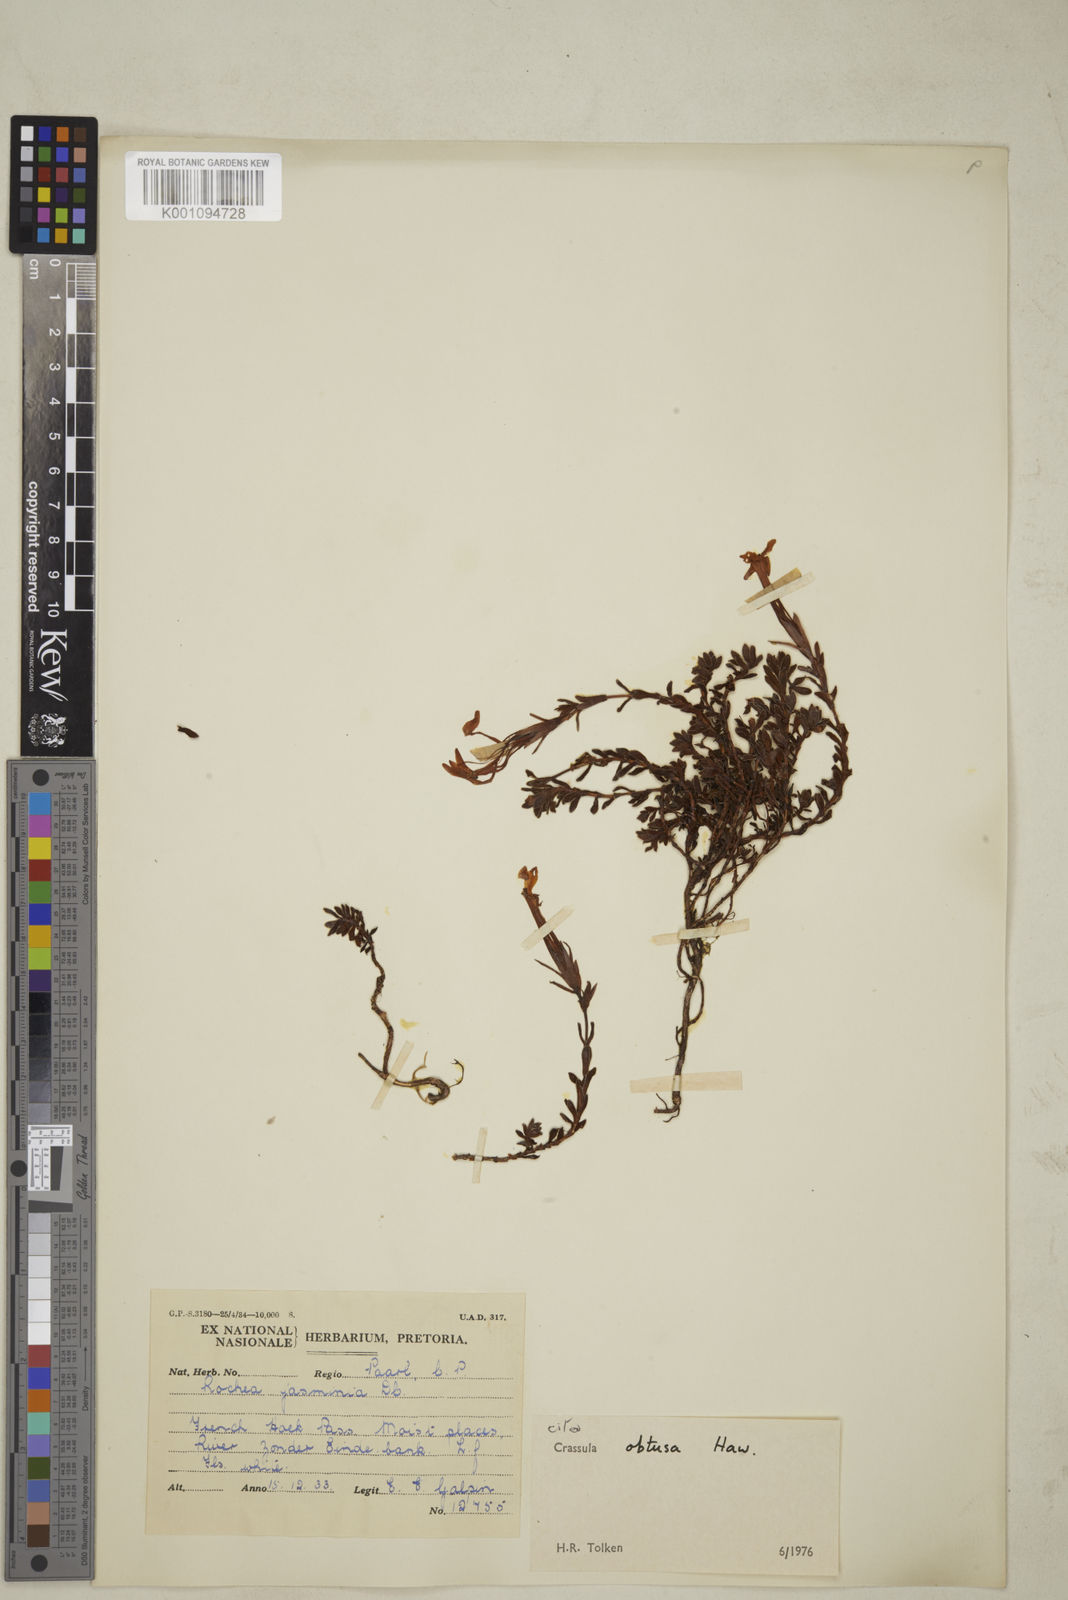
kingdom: Plantae
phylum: Tracheophyta
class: Magnoliopsida
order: Saxifragales
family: Crassulaceae
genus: Crassula
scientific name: Crassula obtusa
